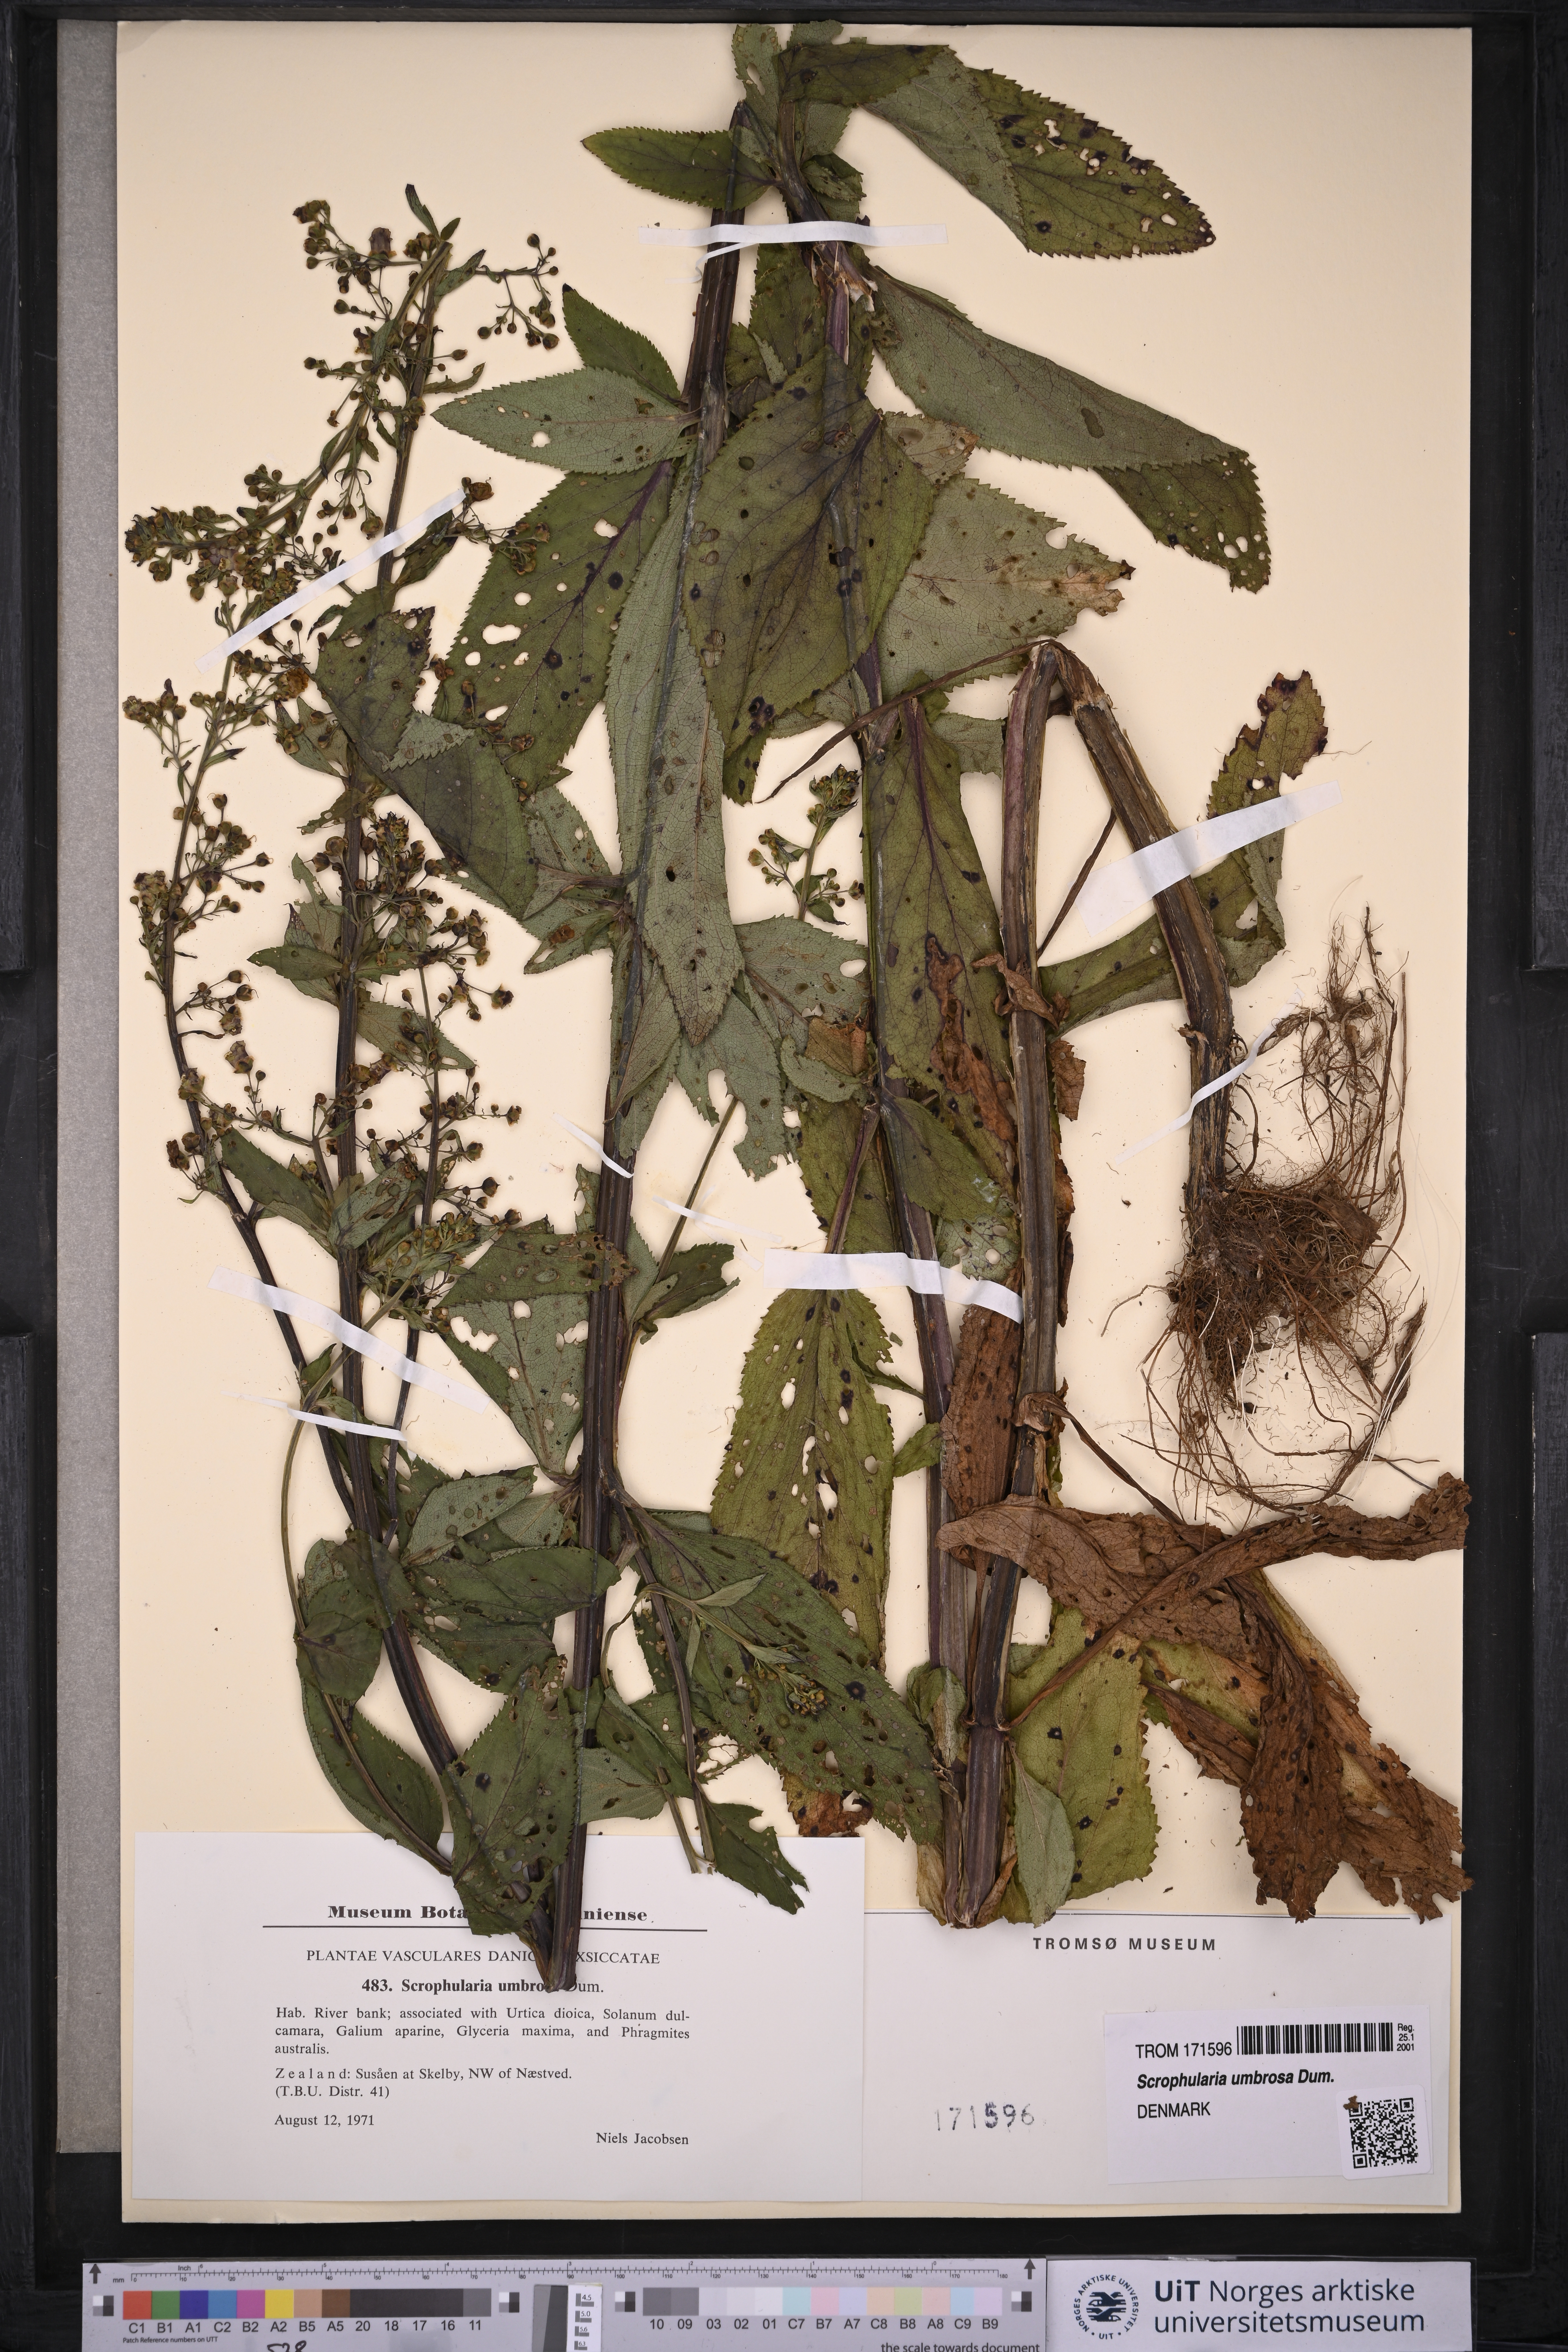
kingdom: Plantae
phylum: Tracheophyta
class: Magnoliopsida
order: Lamiales
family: Scrophulariaceae
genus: Scrophularia
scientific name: Scrophularia oblongifolia
